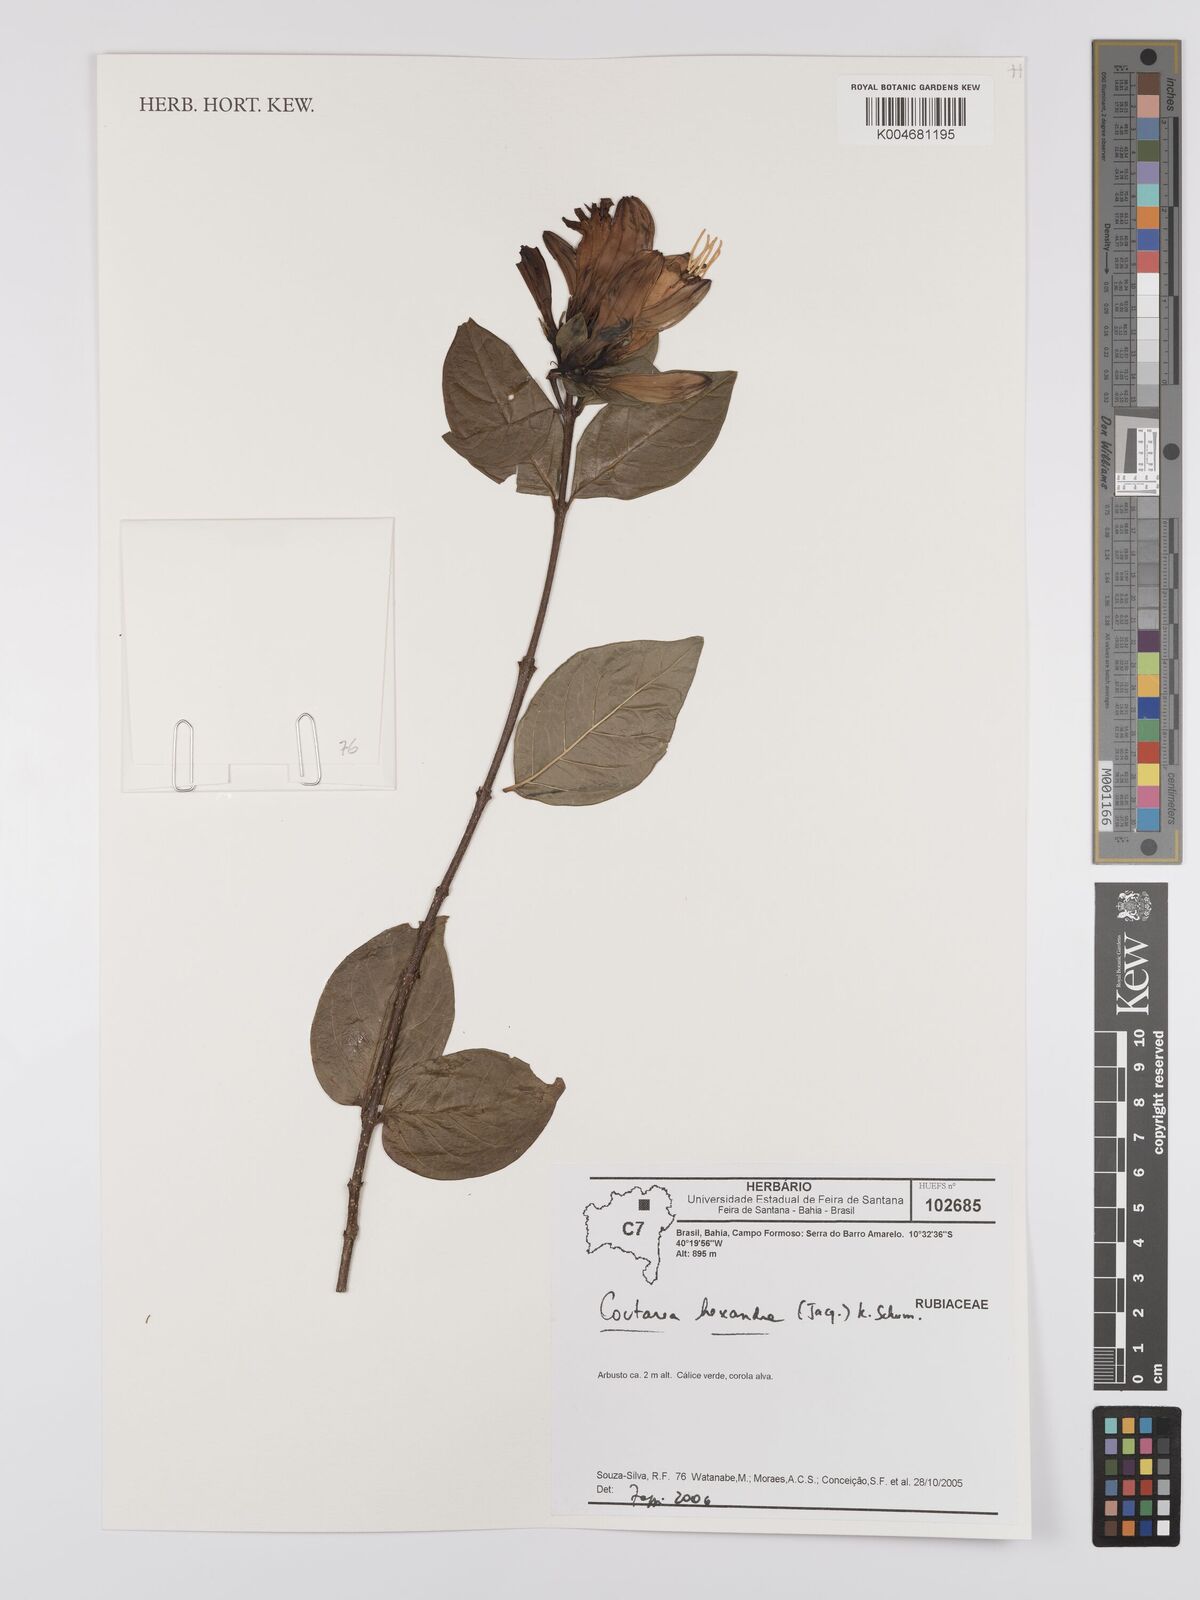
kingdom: Plantae
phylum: Tracheophyta
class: Magnoliopsida
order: Gentianales
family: Rubiaceae
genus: Coutarea
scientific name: Coutarea hexandra
